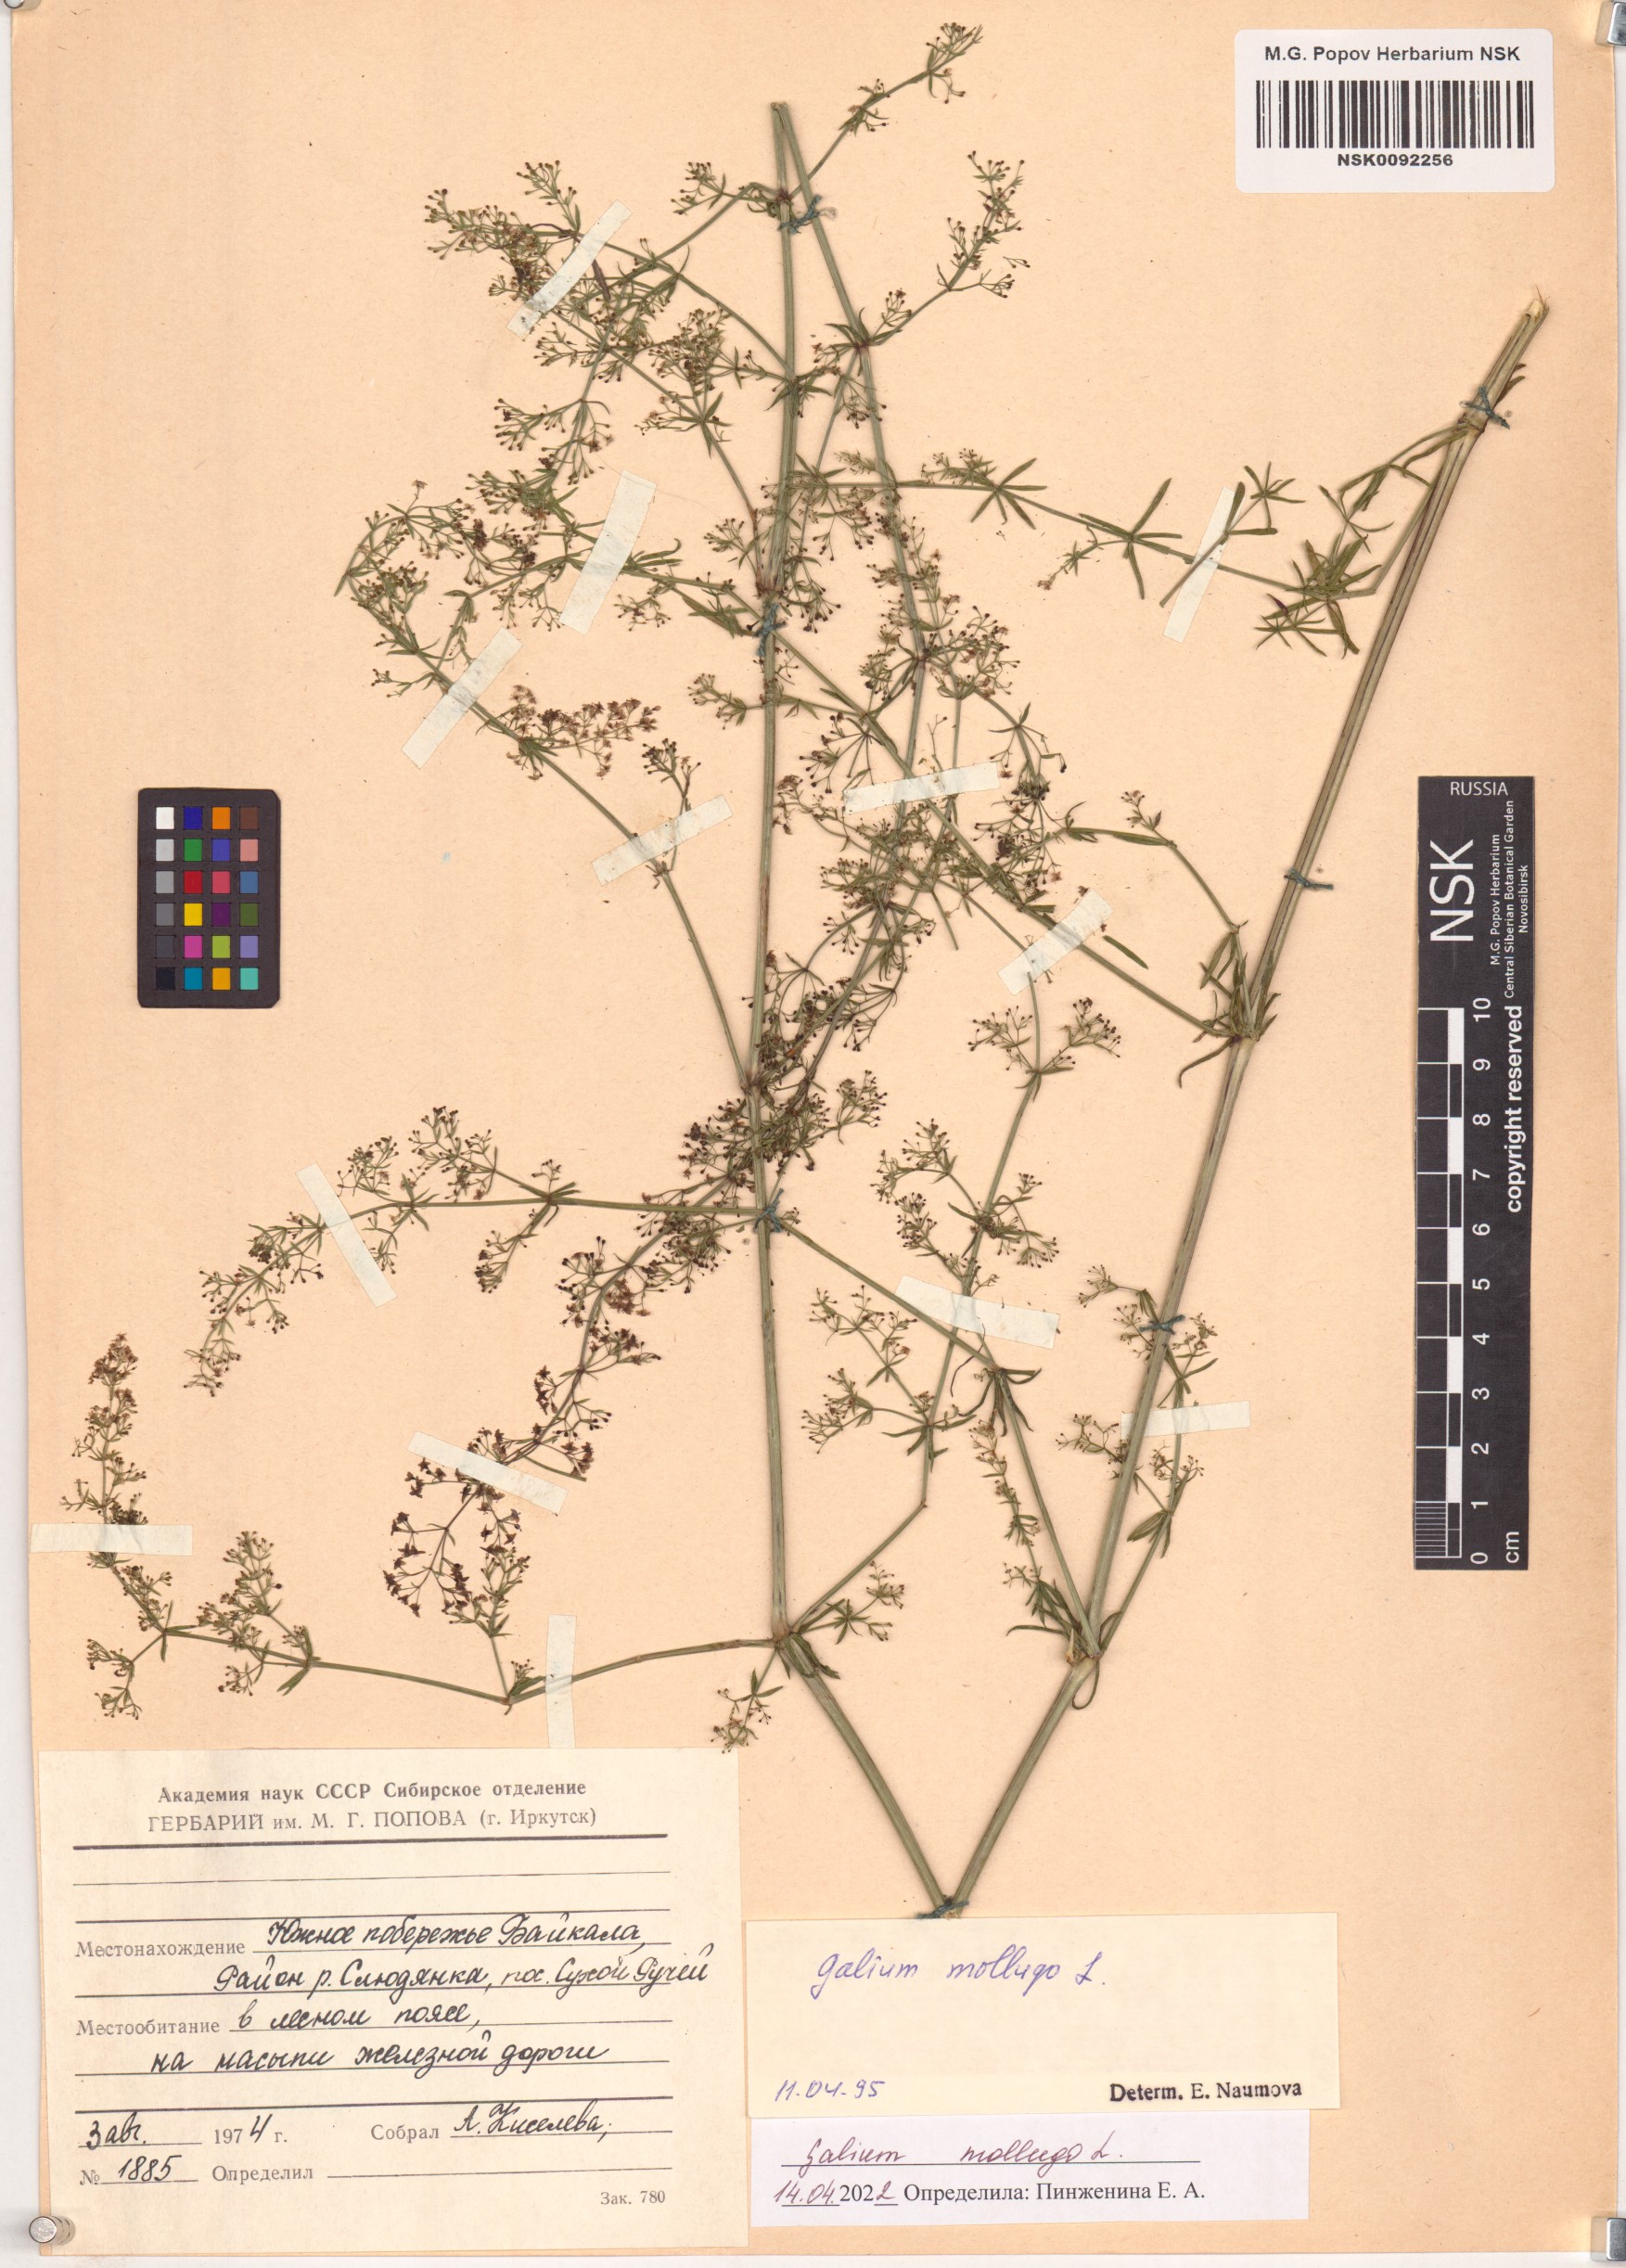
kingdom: Plantae
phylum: Tracheophyta
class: Magnoliopsida
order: Gentianales
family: Rubiaceae
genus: Galium
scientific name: Galium mollugo
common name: Hedge bedstraw
